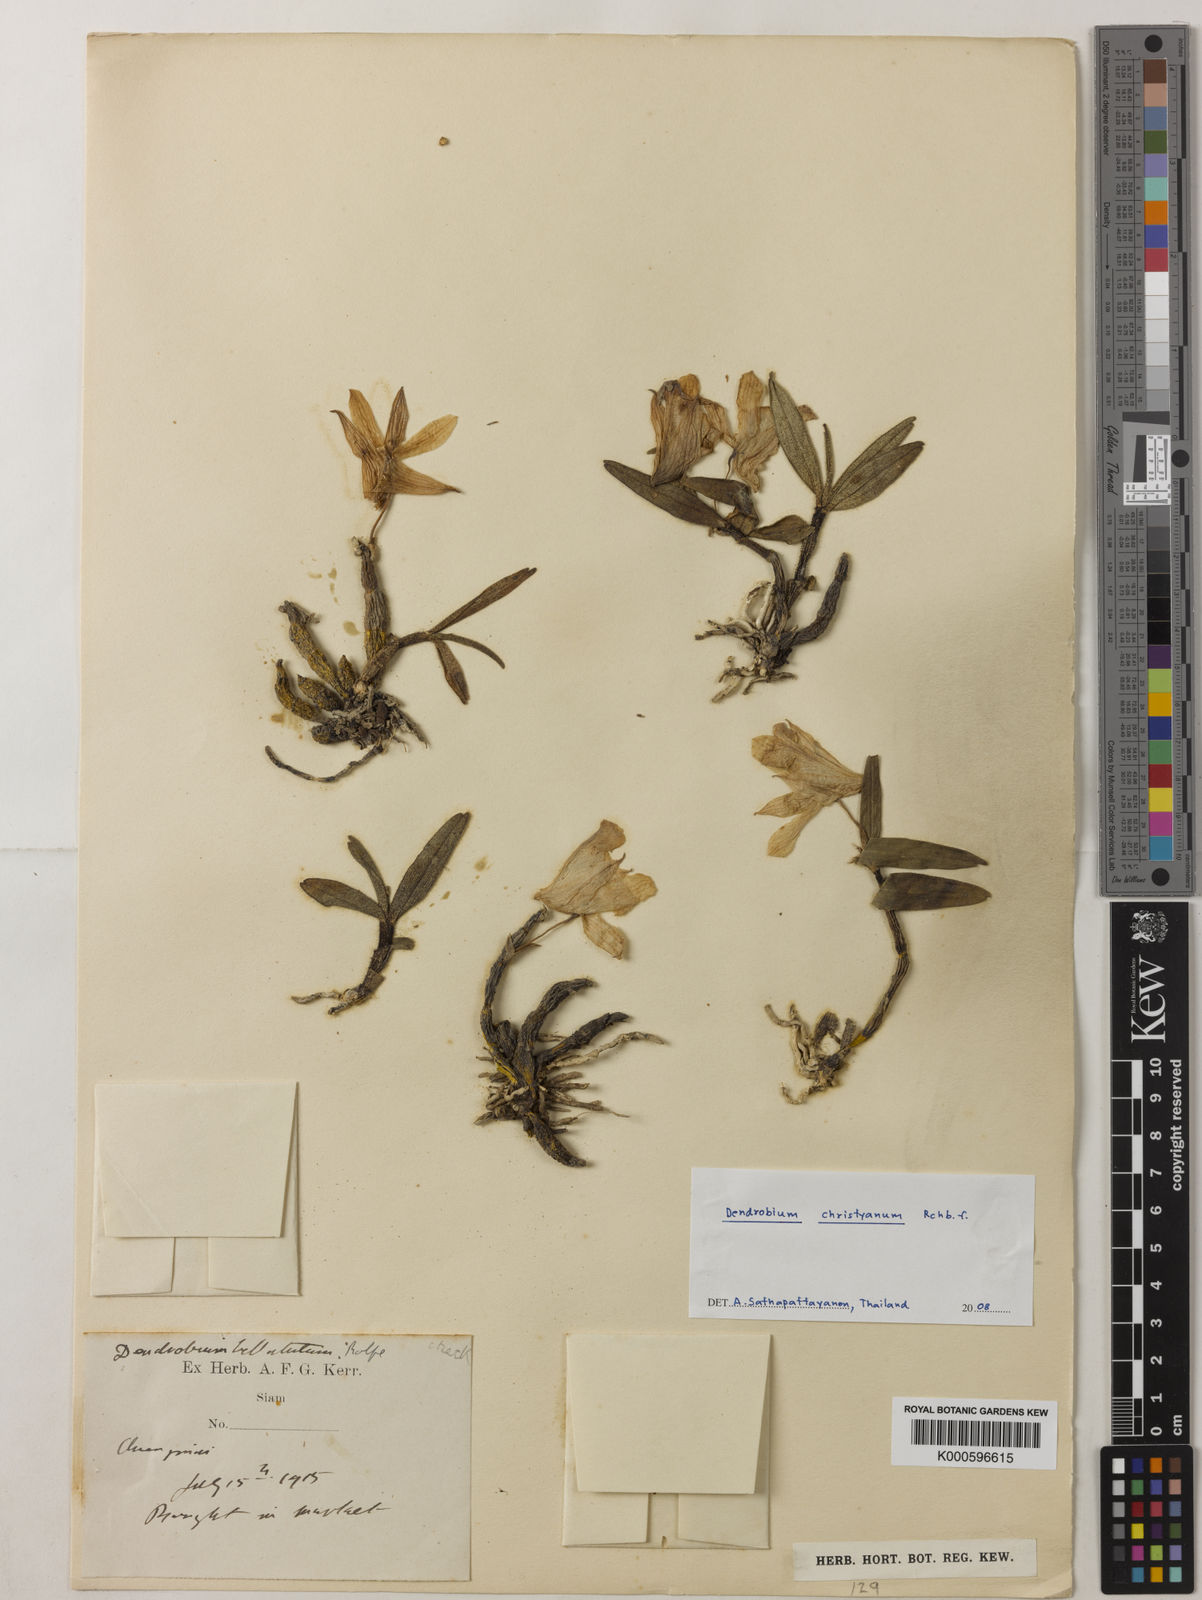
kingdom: Plantae
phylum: Tracheophyta
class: Liliopsida
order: Asparagales
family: Orchidaceae
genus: Dendrobium
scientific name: Dendrobium christyanum
